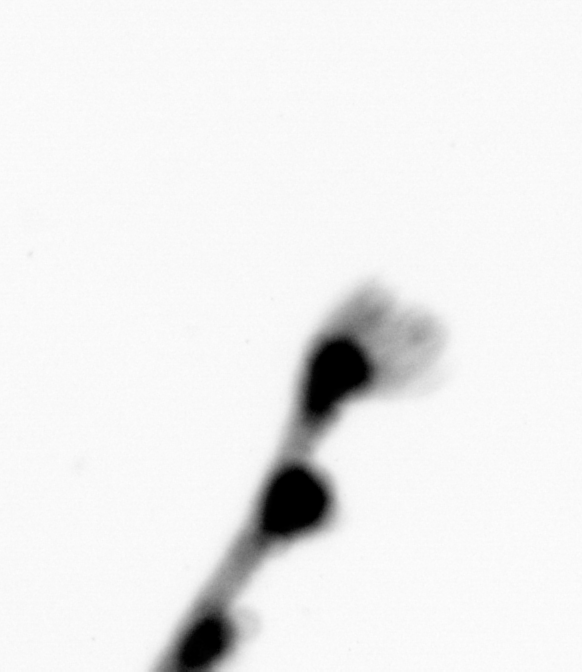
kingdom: Animalia
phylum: Cnidaria
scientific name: Cnidaria
